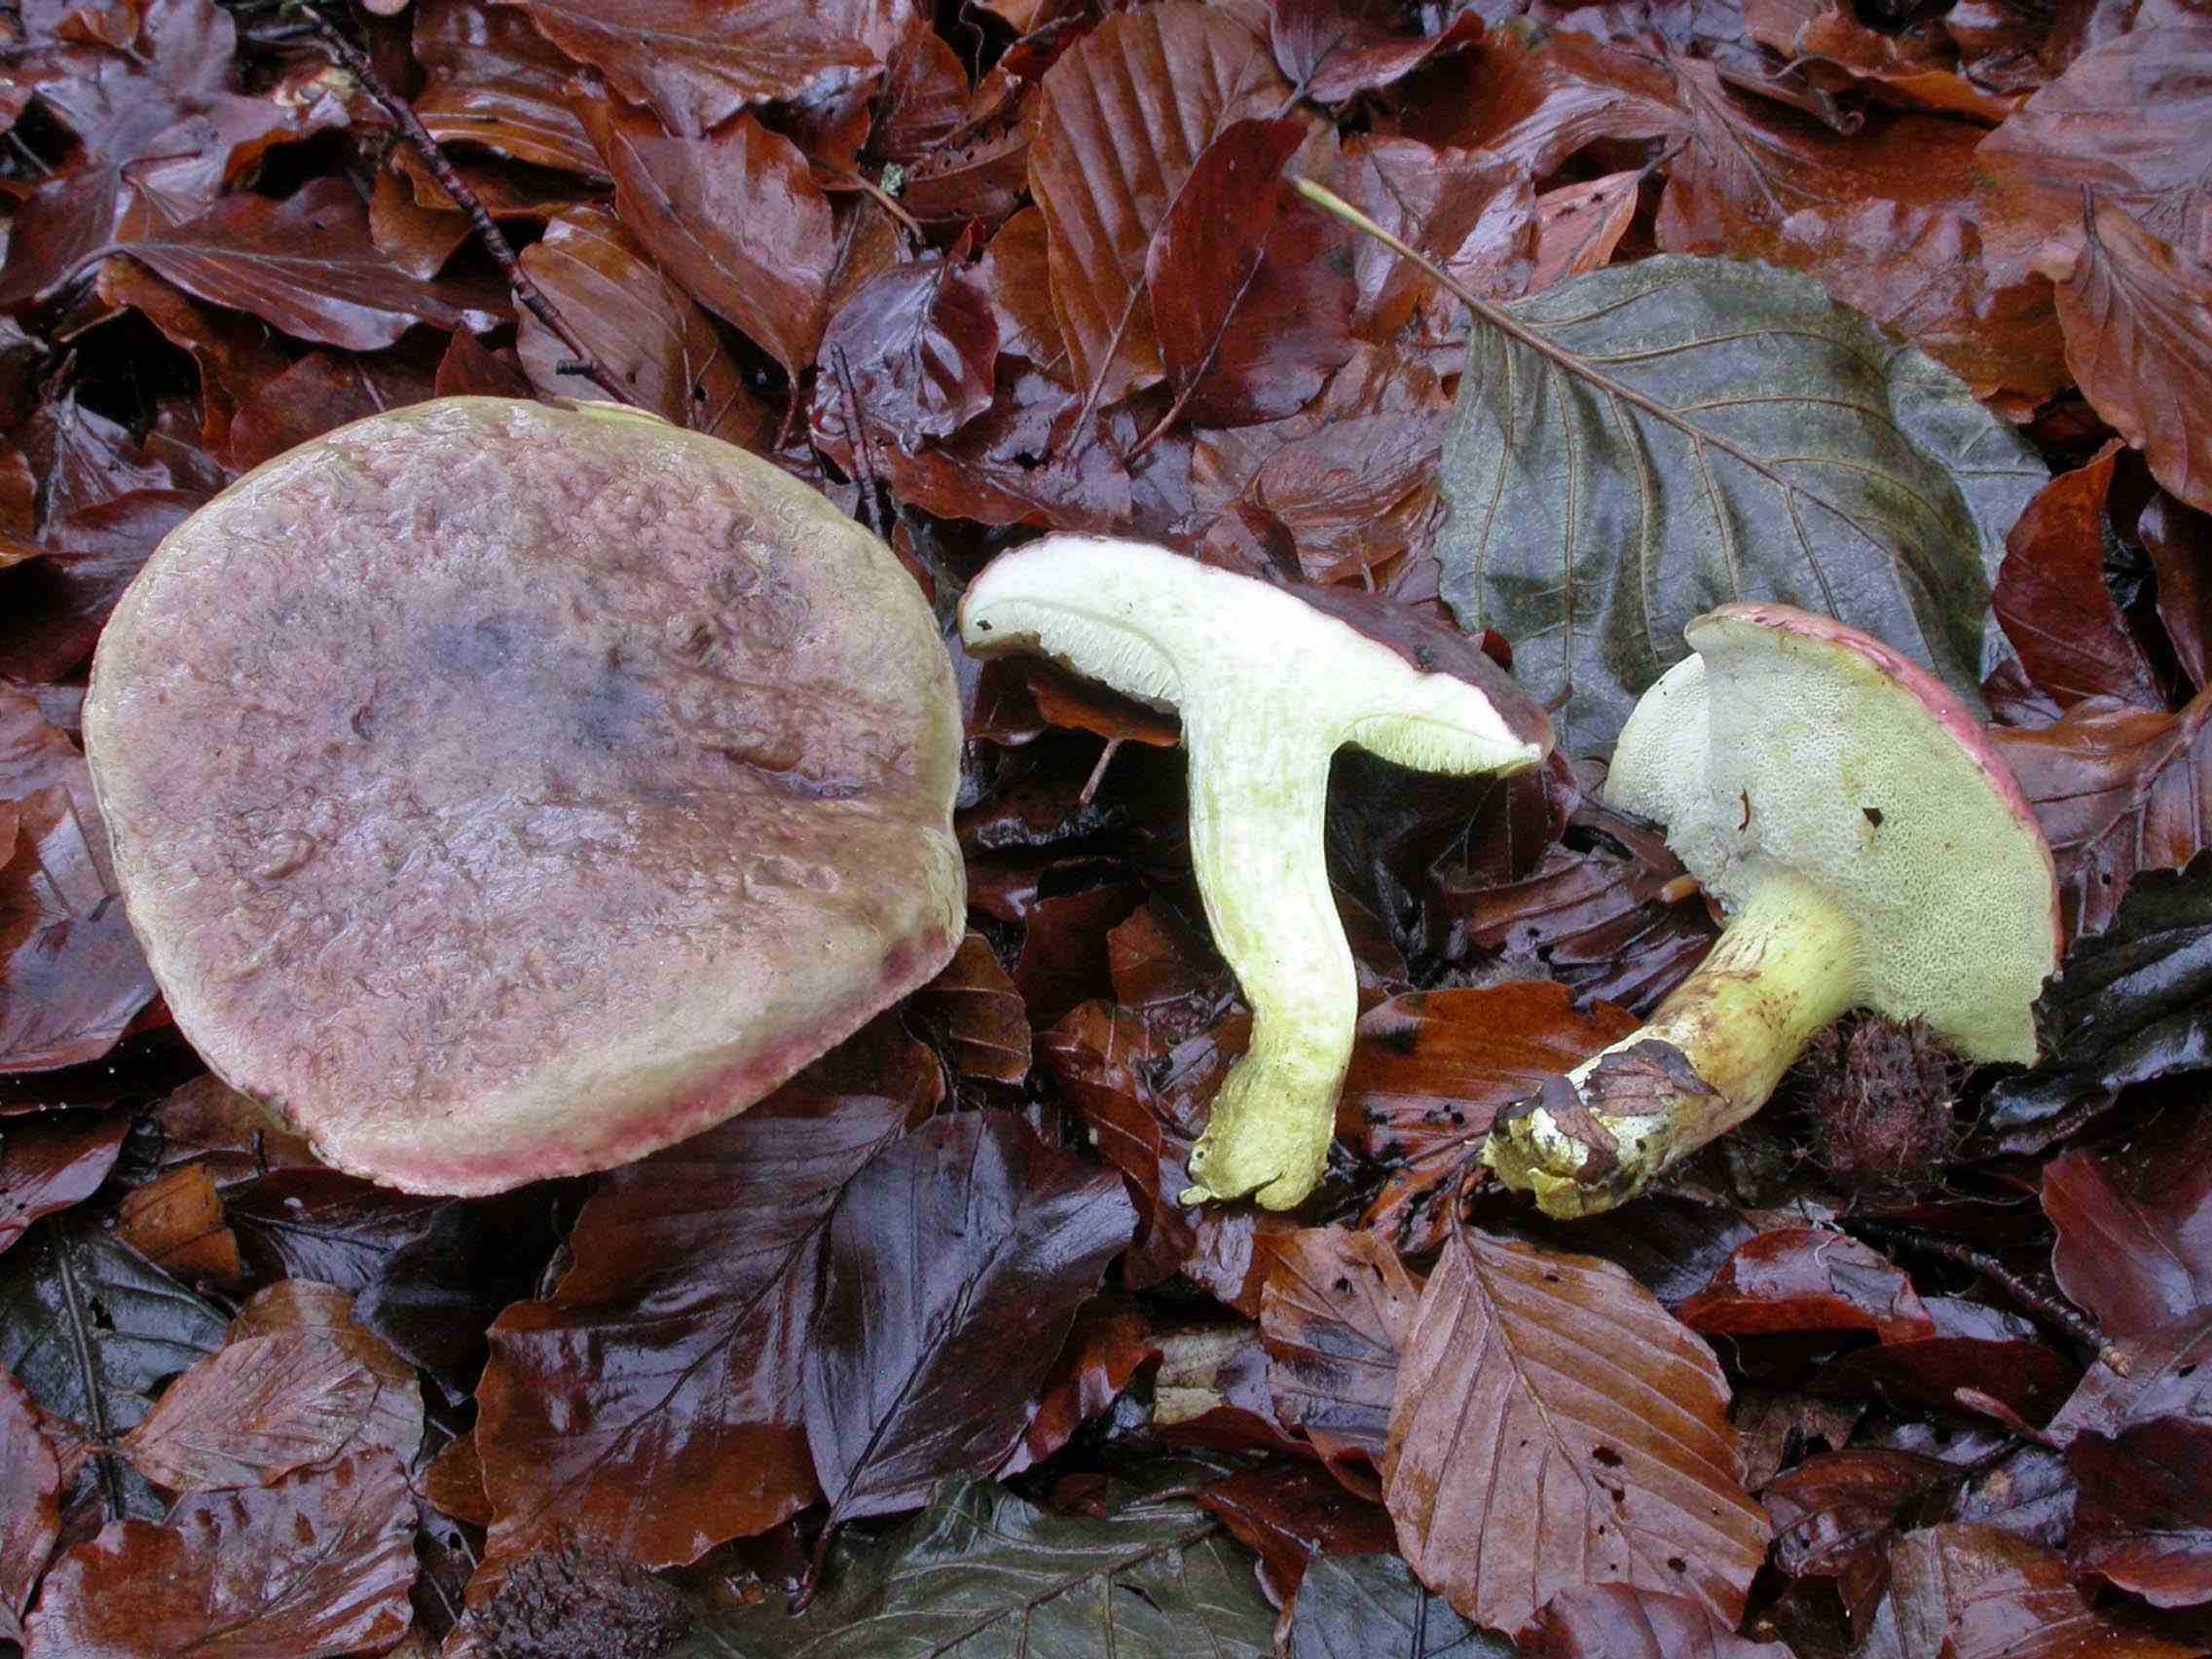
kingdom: Fungi
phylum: Basidiomycota
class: Agaricomycetes
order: Boletales
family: Boletaceae
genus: Xerocomellus
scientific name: Xerocomellus pruinatus
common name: dugget rørhat
